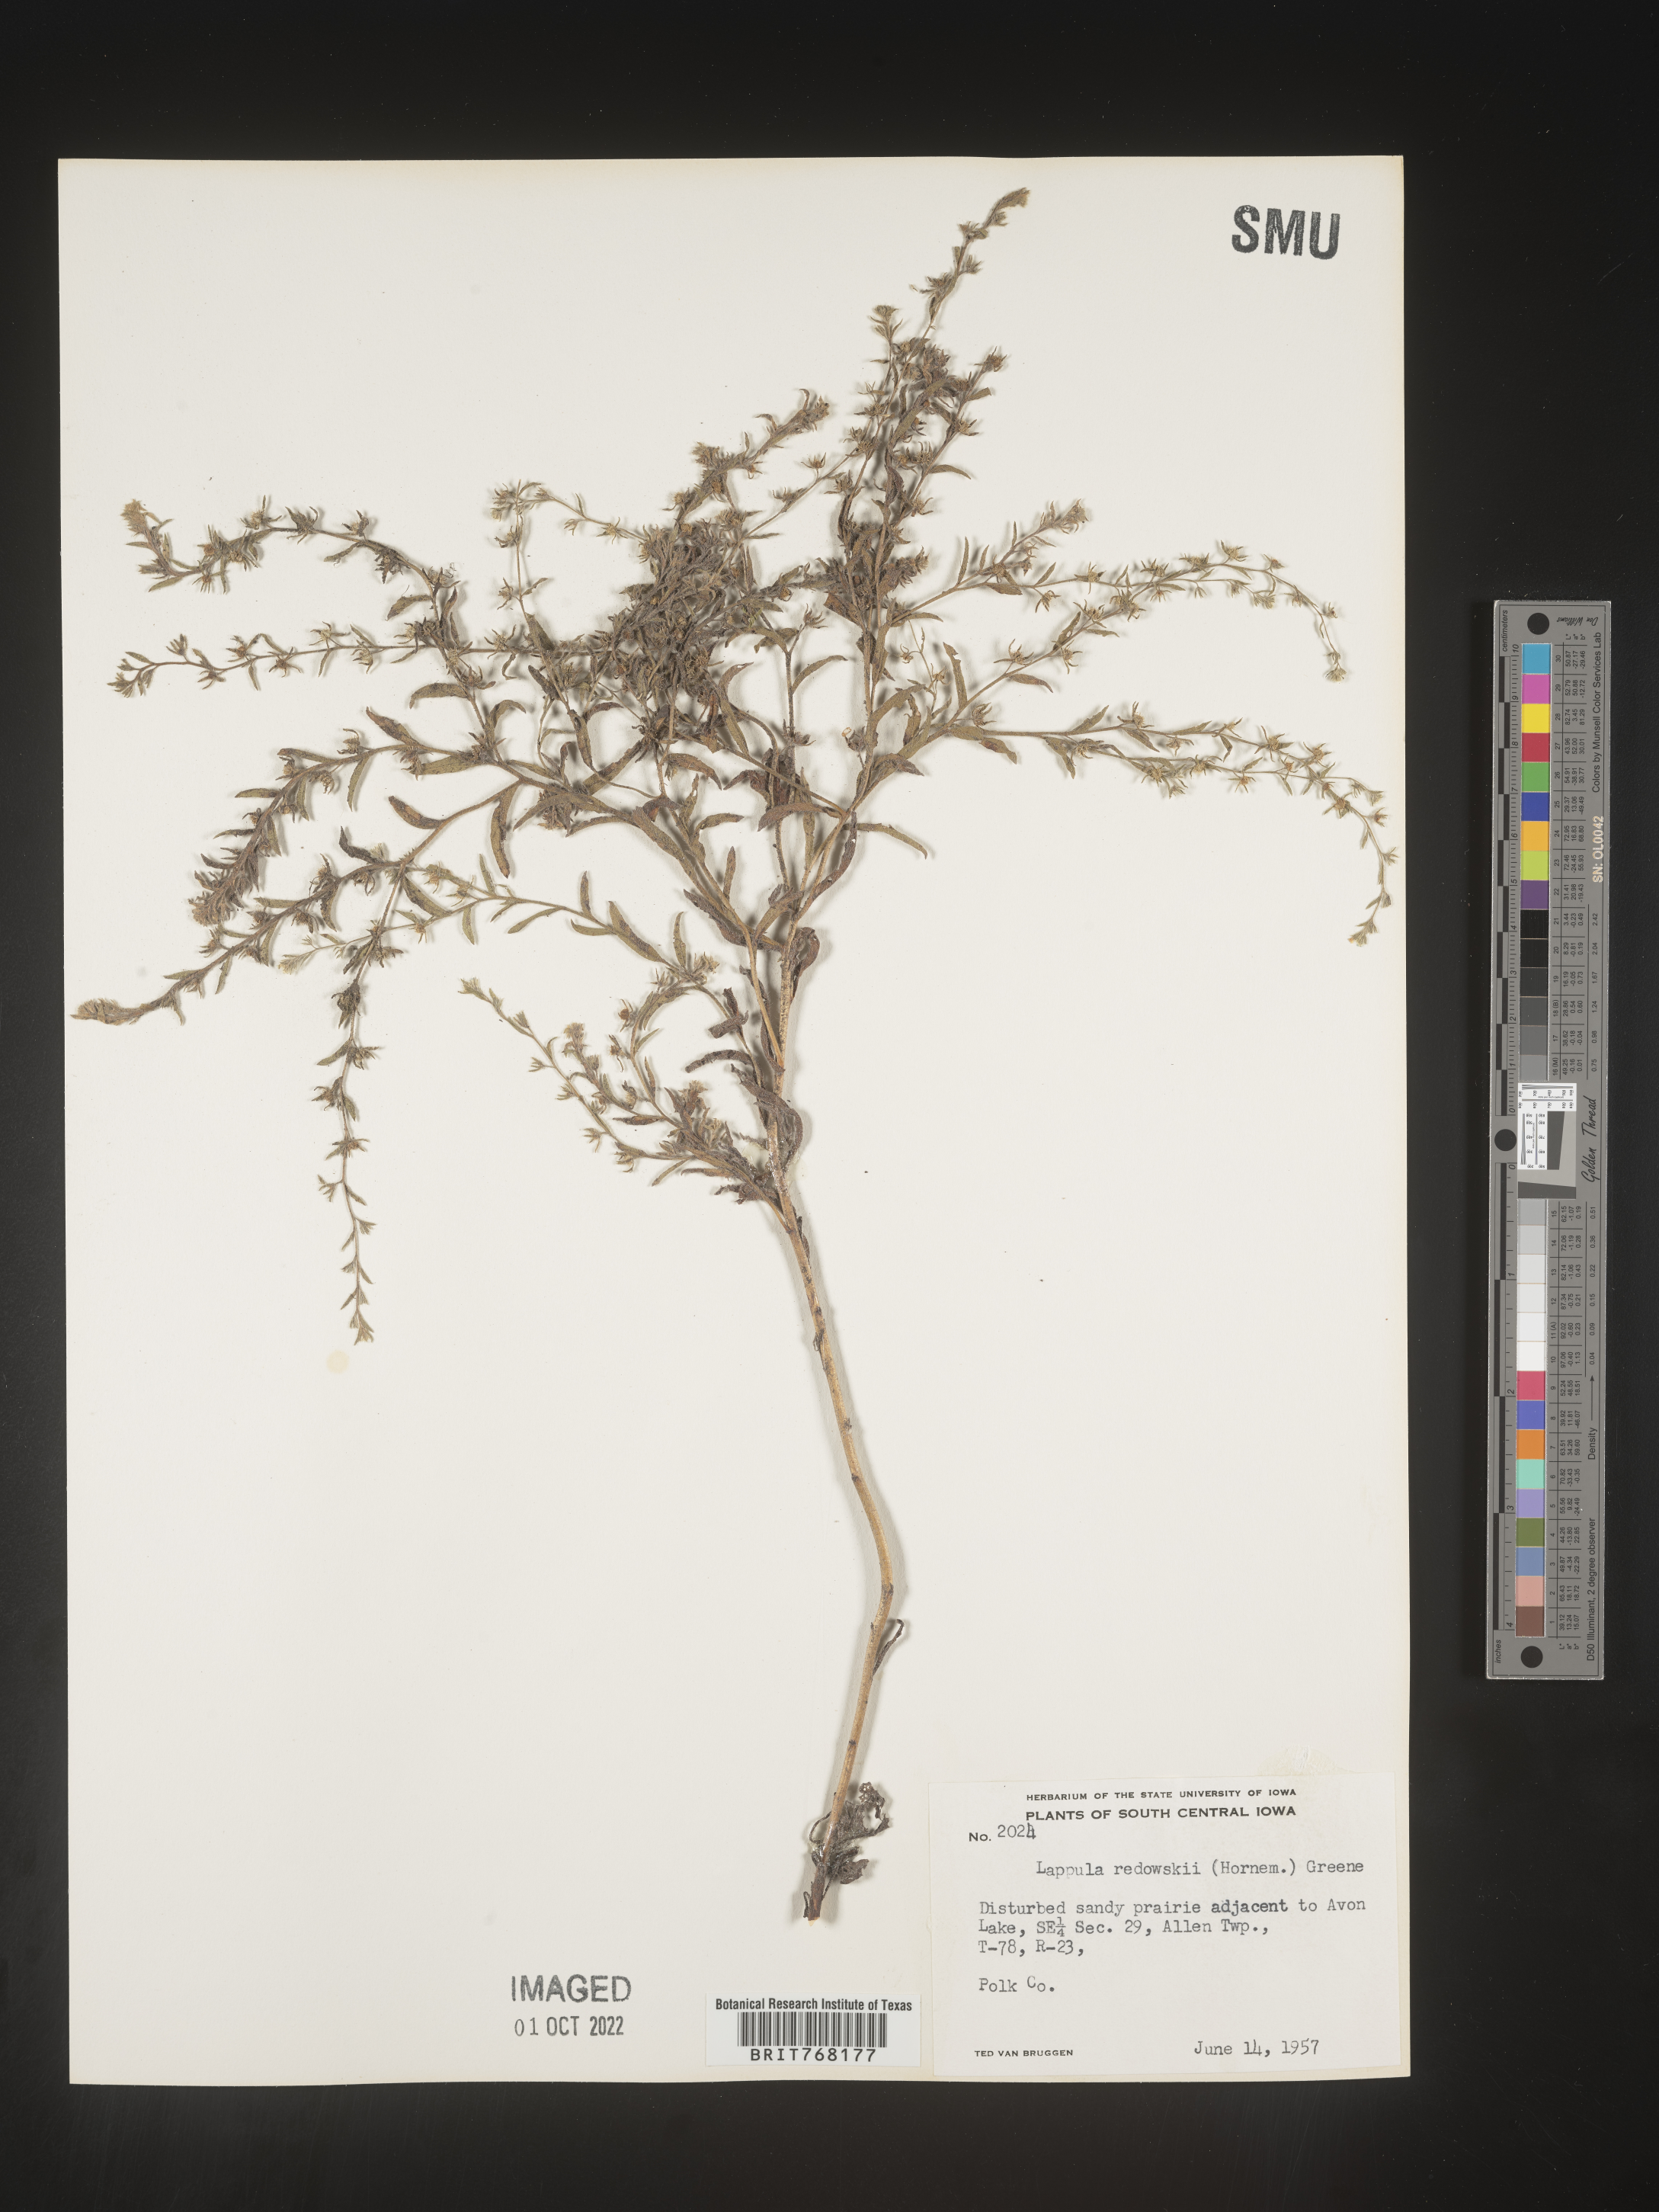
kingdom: Plantae
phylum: Tracheophyta
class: Magnoliopsida
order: Boraginales
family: Boraginaceae
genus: Lappula
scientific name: Lappula redowskii
